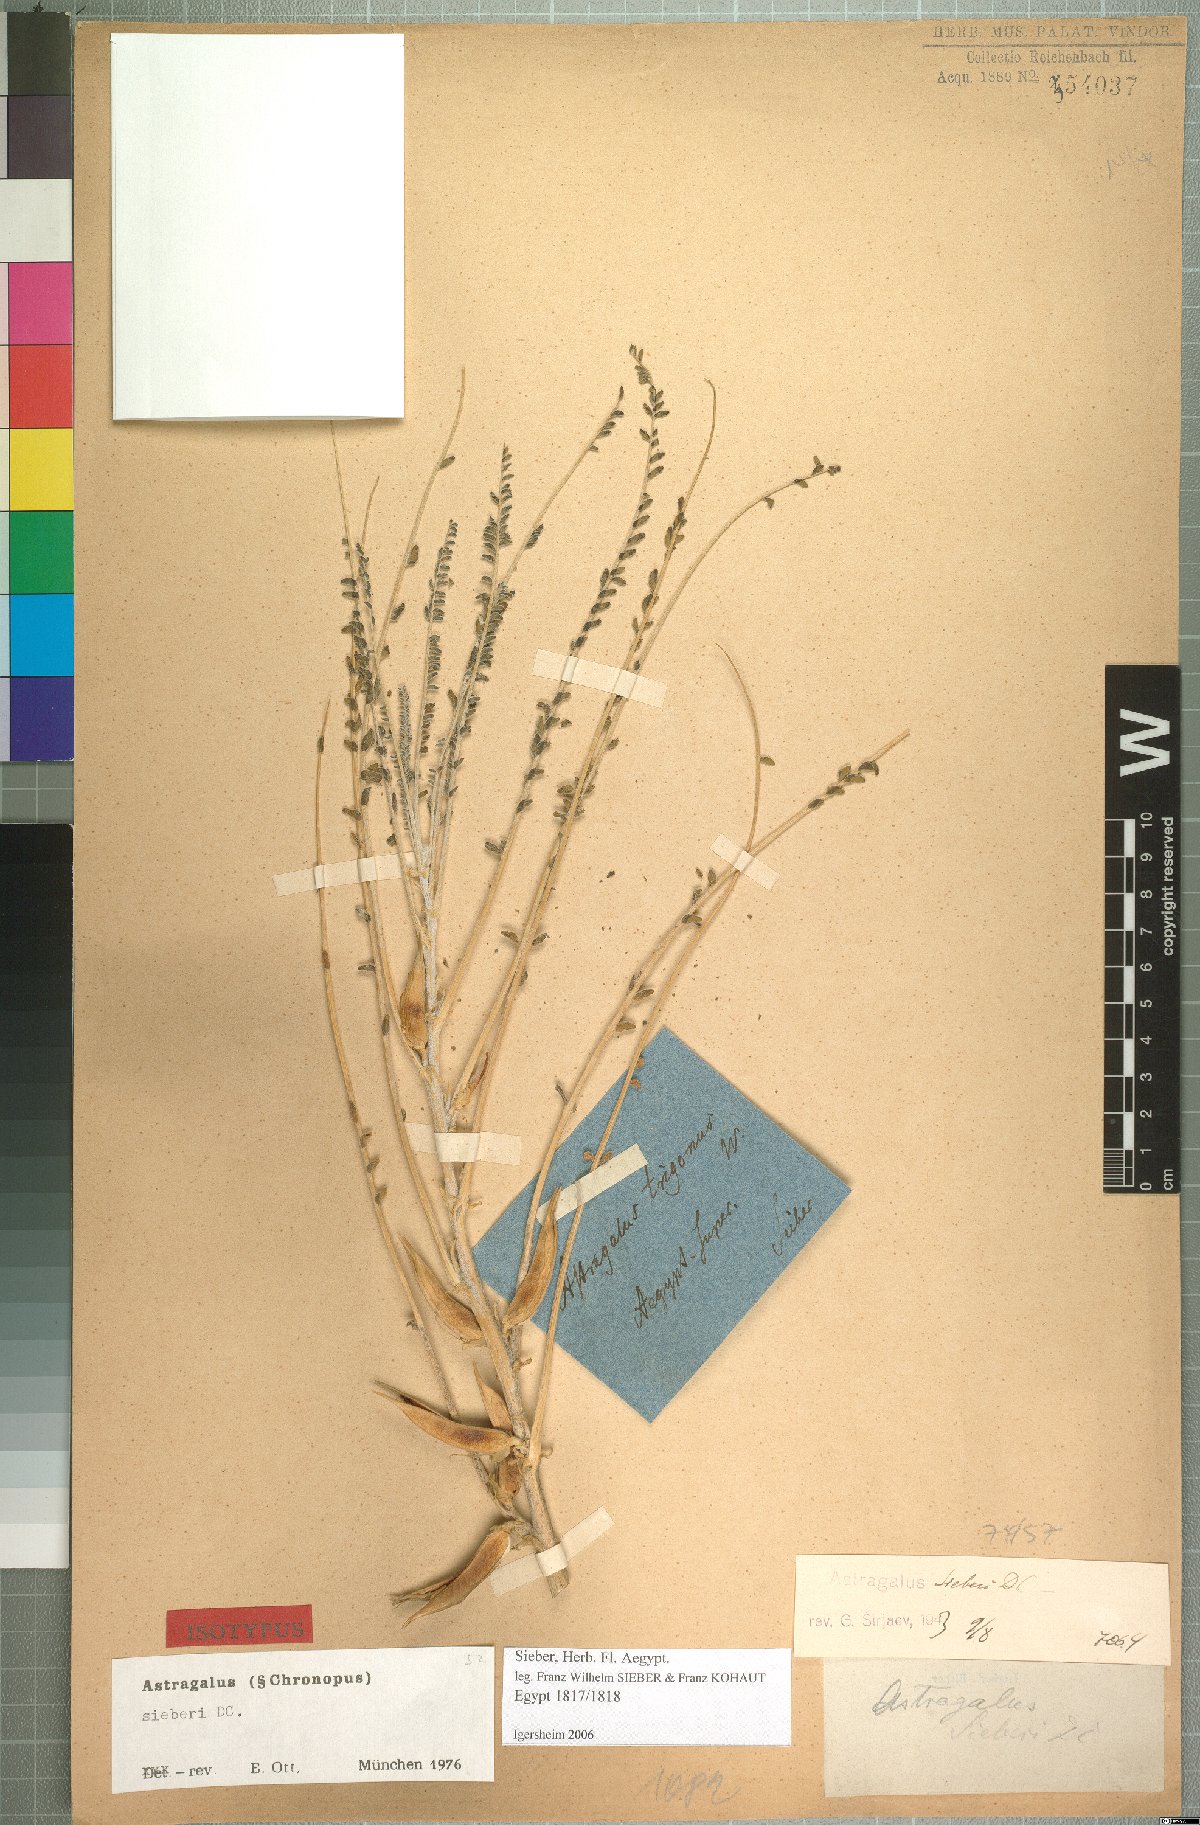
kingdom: Plantae
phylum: Tracheophyta
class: Magnoliopsida
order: Fabales
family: Fabaceae
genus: Astragalus
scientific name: Astragalus sieberi
